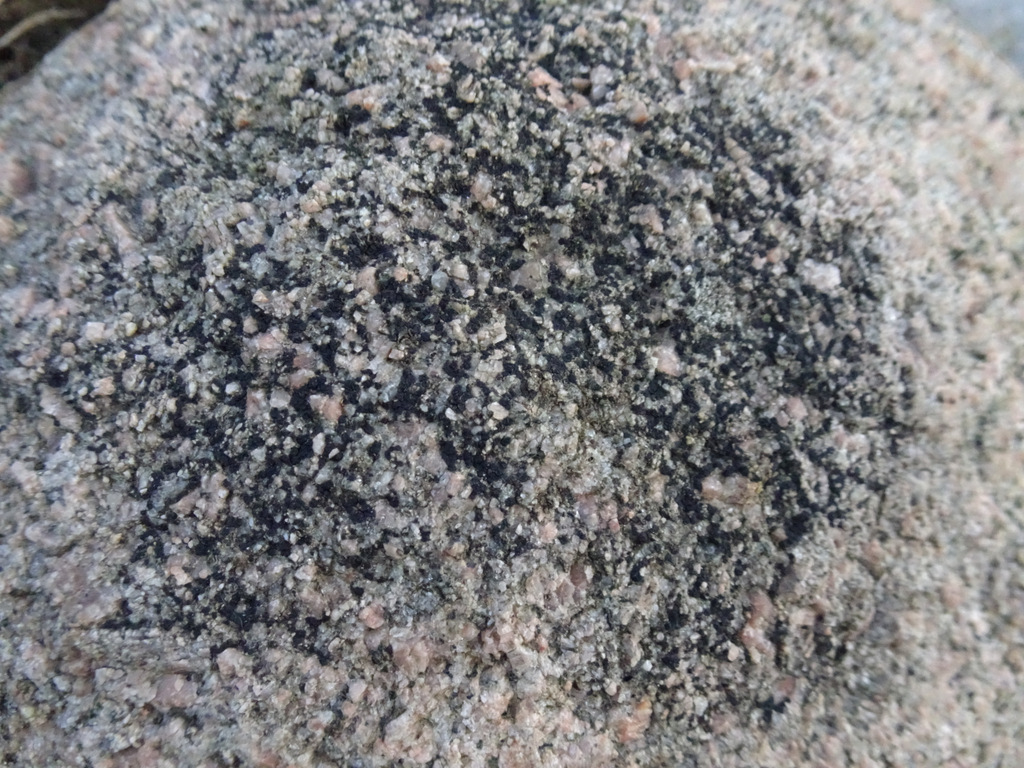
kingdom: Fungi
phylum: Ascomycota
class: Lecanoromycetes
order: Acarosporales
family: Acarosporaceae
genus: Acarospora
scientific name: Acarospora privigna
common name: sort foldekantlav
